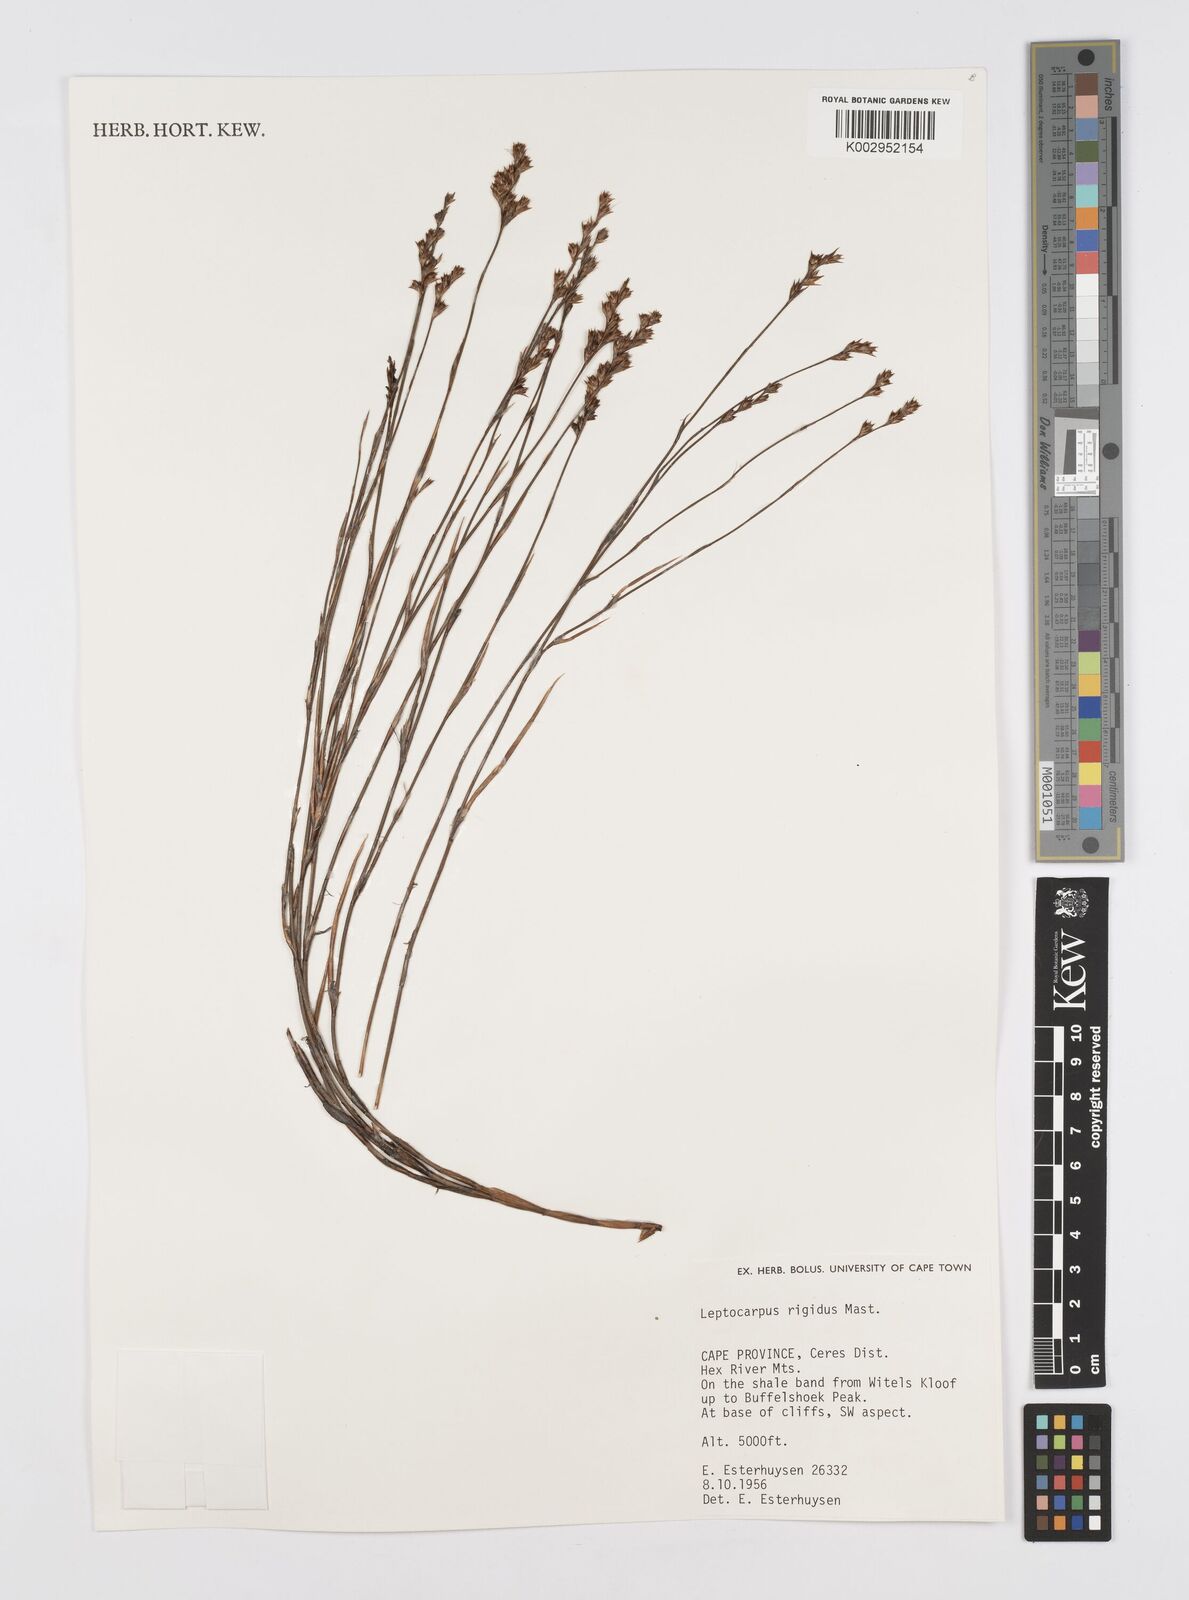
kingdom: Plantae
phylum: Tracheophyta
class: Liliopsida
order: Poales
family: Restionaceae
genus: Restio
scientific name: Restio rigidus
